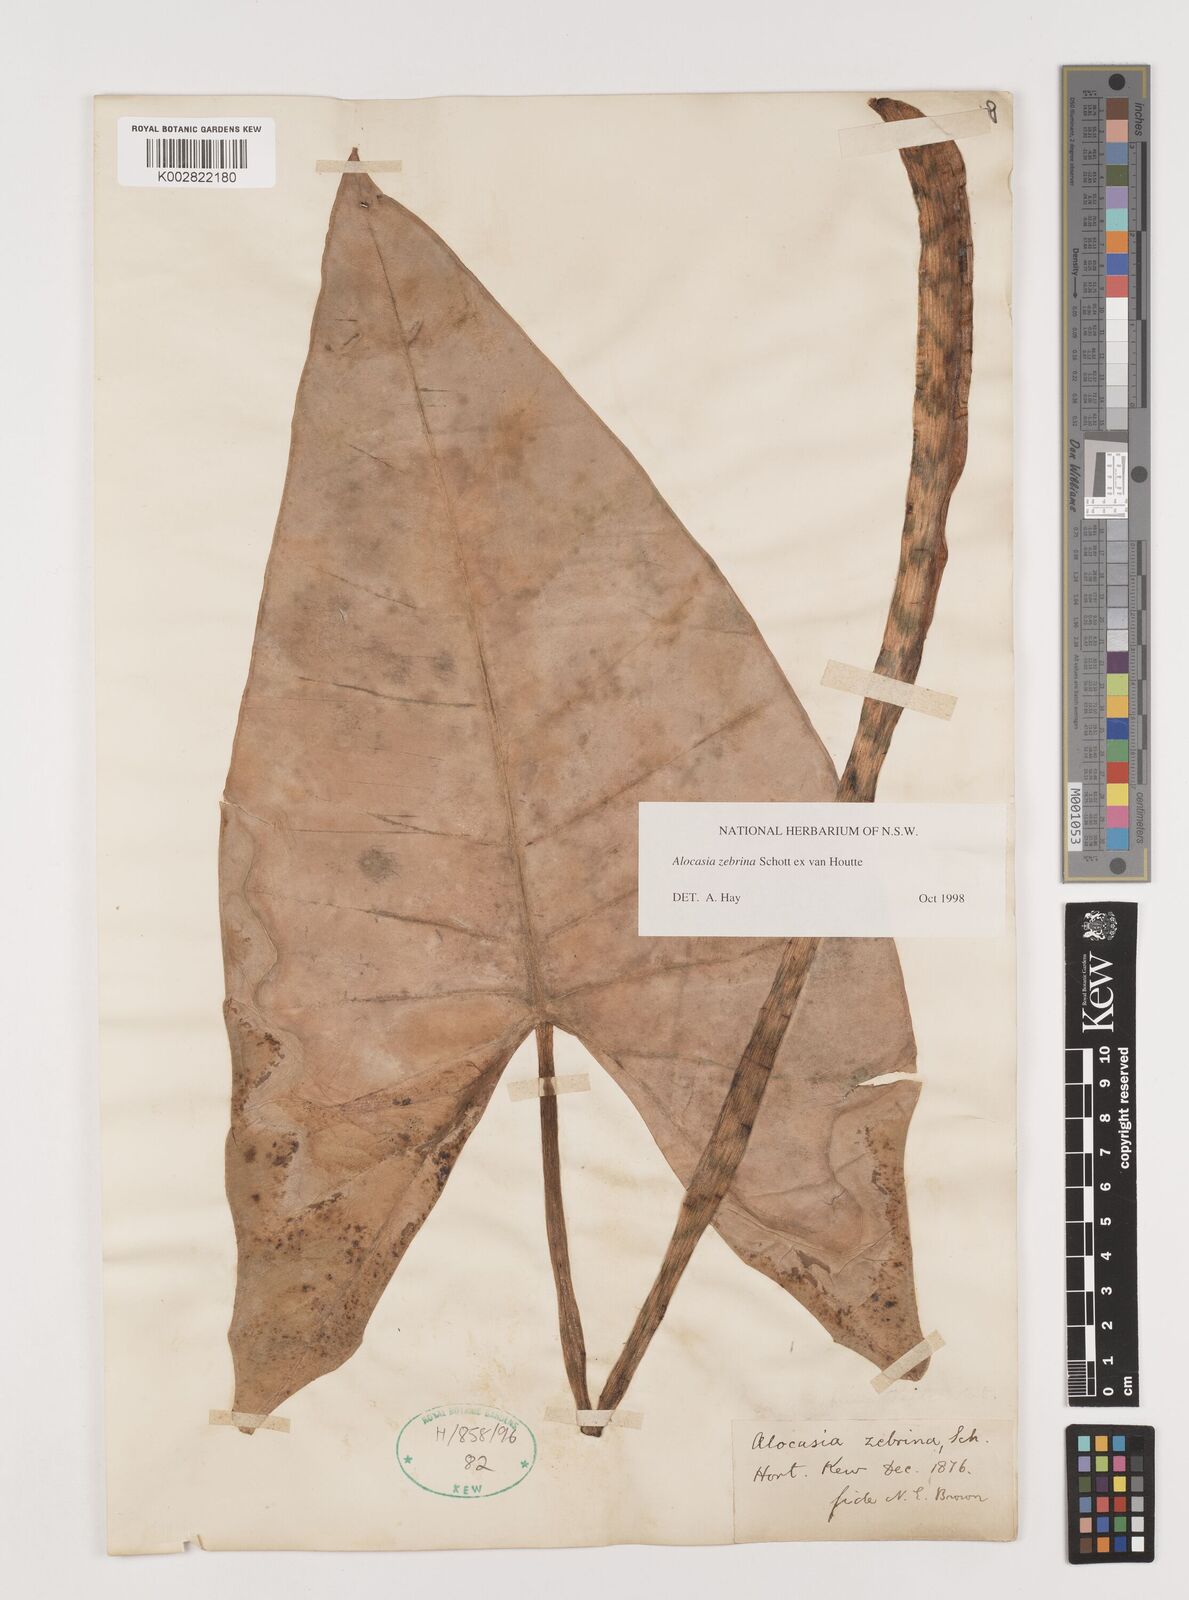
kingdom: Plantae
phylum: Tracheophyta
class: Liliopsida
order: Alismatales
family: Araceae
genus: Alocasia
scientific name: Alocasia zebrina
